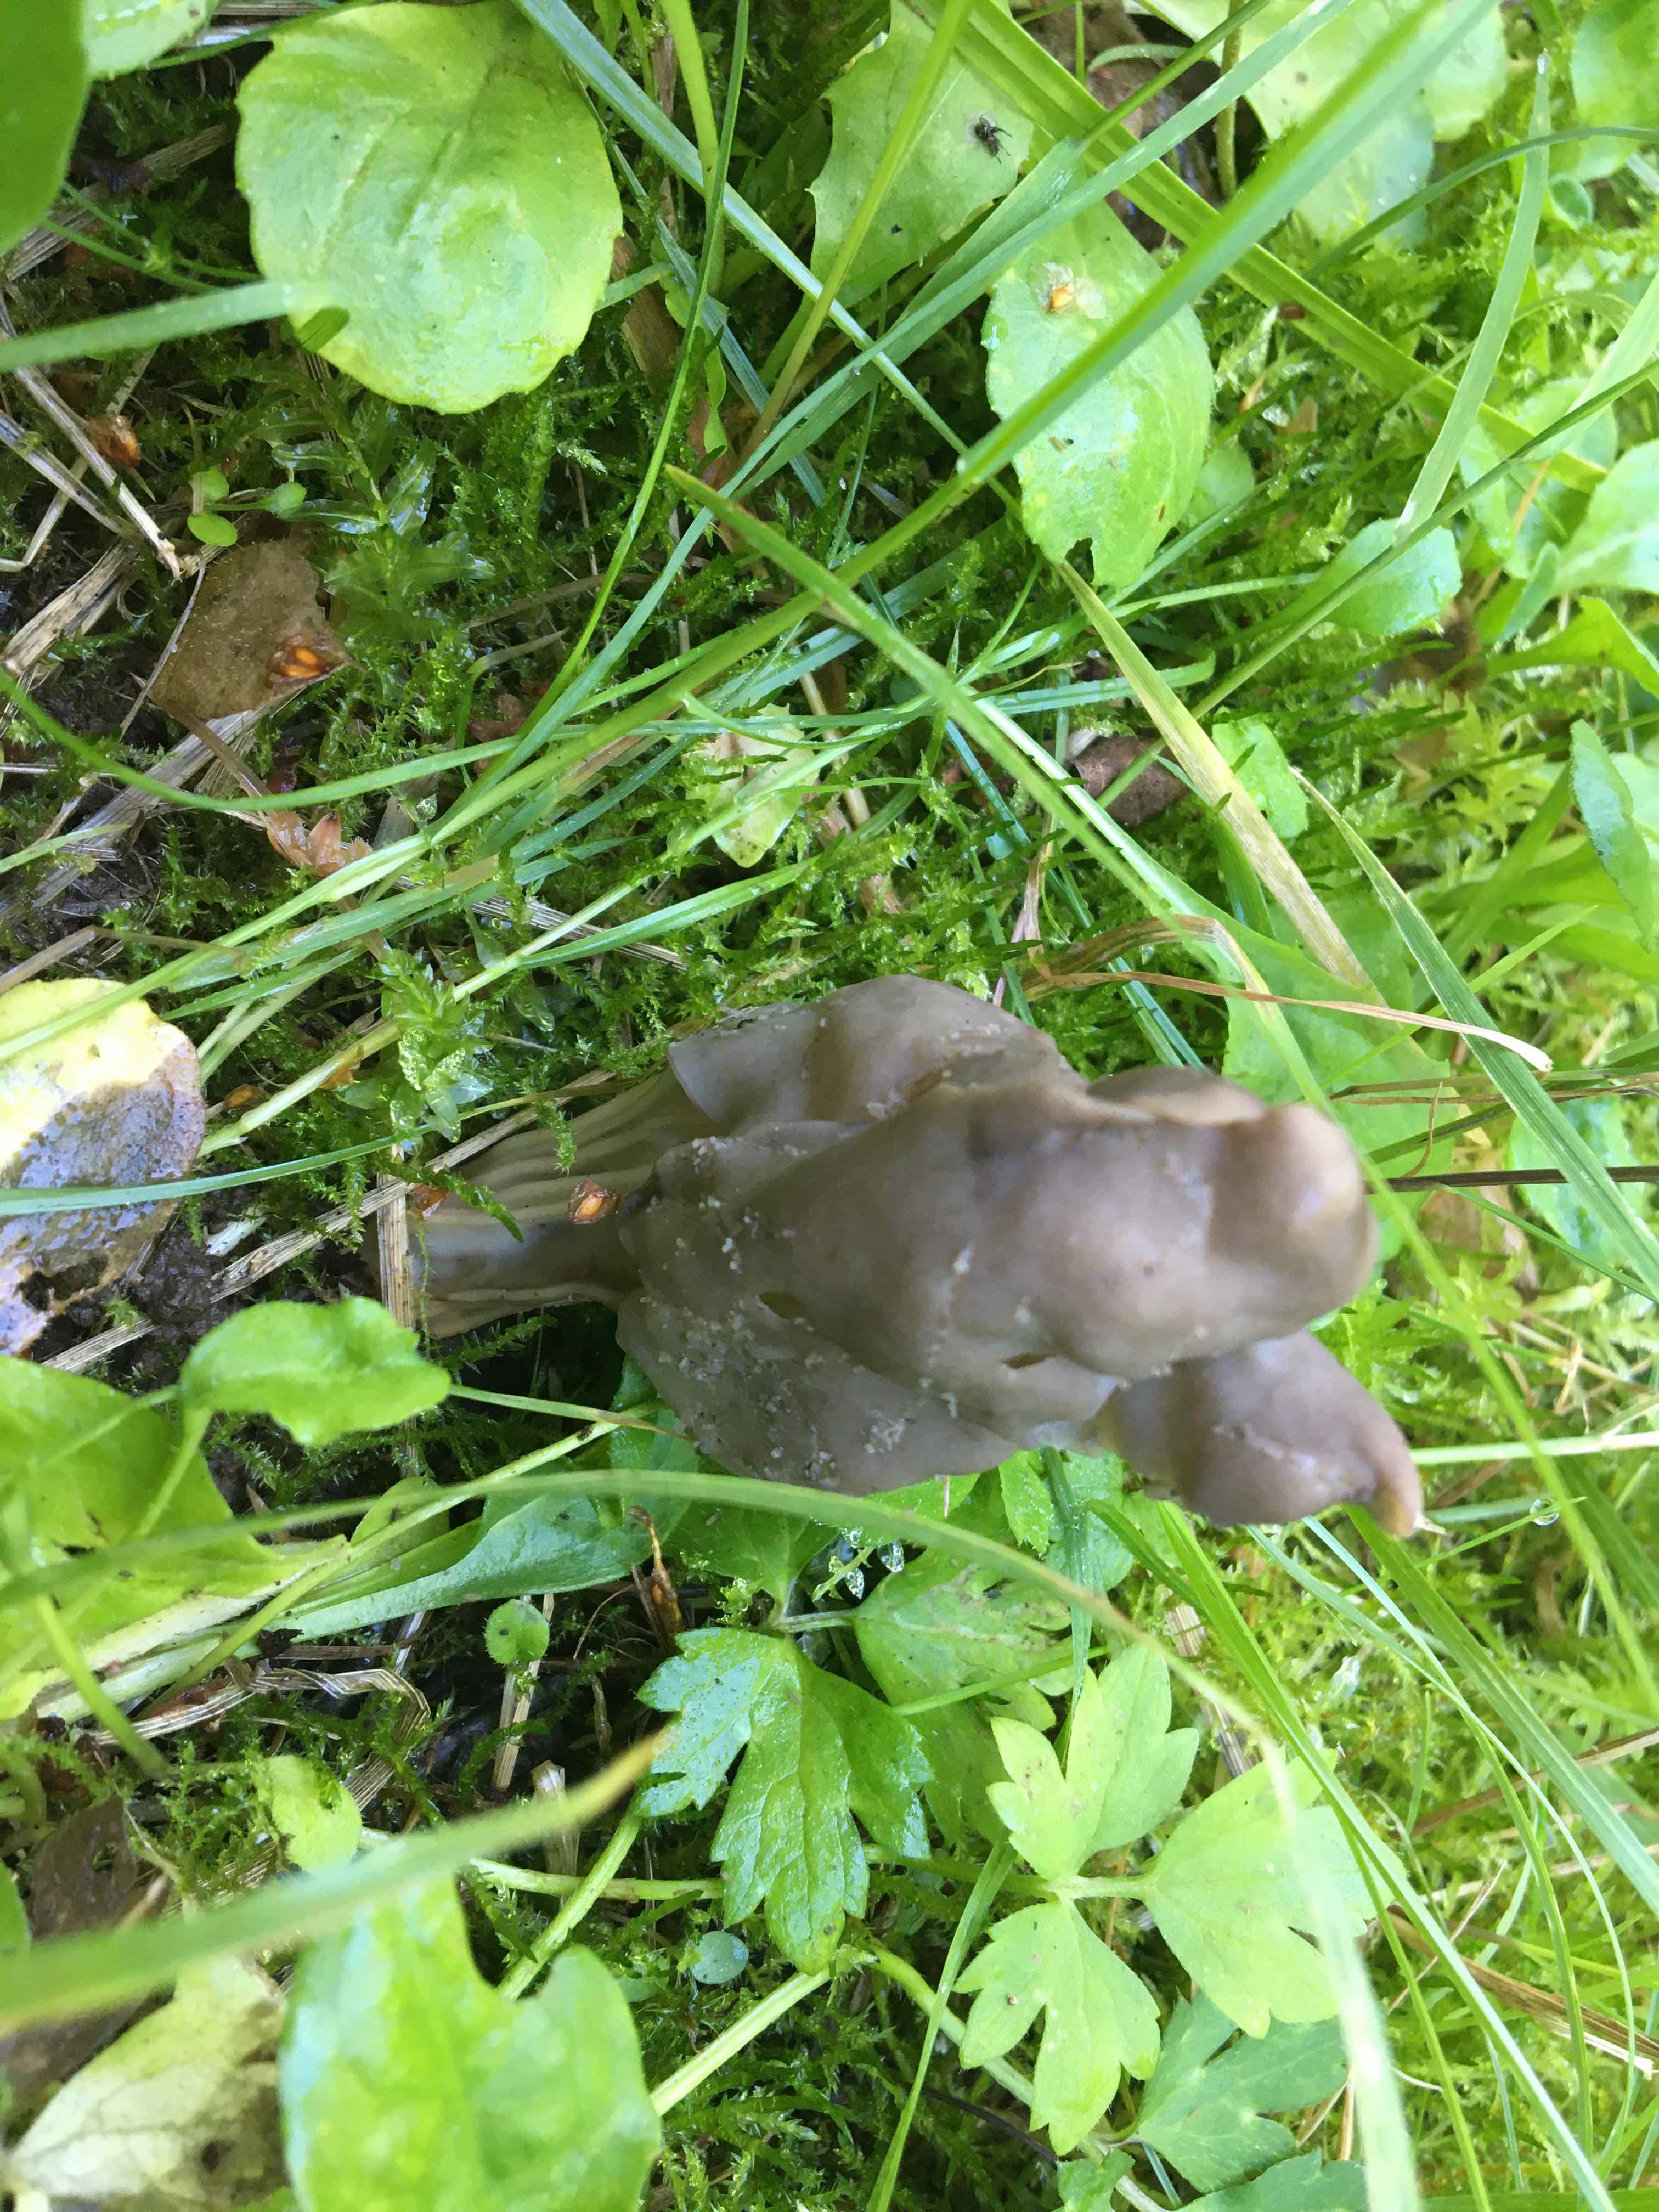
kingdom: Fungi
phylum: Ascomycota
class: Pezizomycetes
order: Pezizales
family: Helvellaceae
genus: Helvella
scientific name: Helvella lacunosa
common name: grubet foldhat
